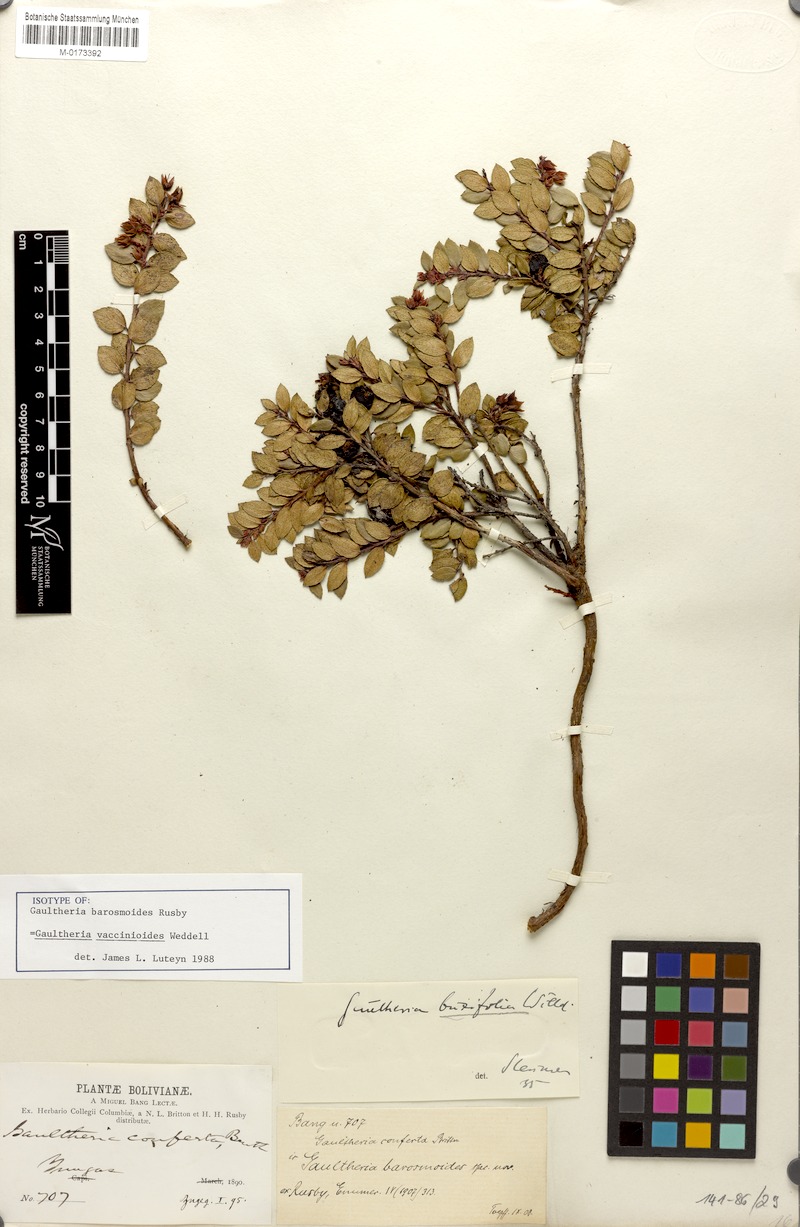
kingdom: Plantae
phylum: Tracheophyta
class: Magnoliopsida
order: Ericales
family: Ericaceae
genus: Gaultheria
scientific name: Gaultheria vaccinioides
